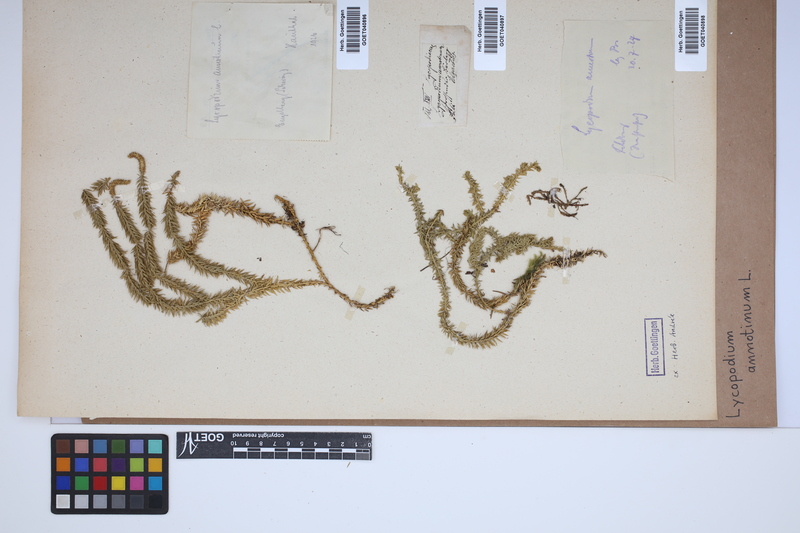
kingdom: Plantae
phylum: Tracheophyta
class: Lycopodiopsida
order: Lycopodiales
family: Lycopodiaceae
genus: Spinulum
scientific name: Spinulum annotinum
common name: Interrupted club-moss
